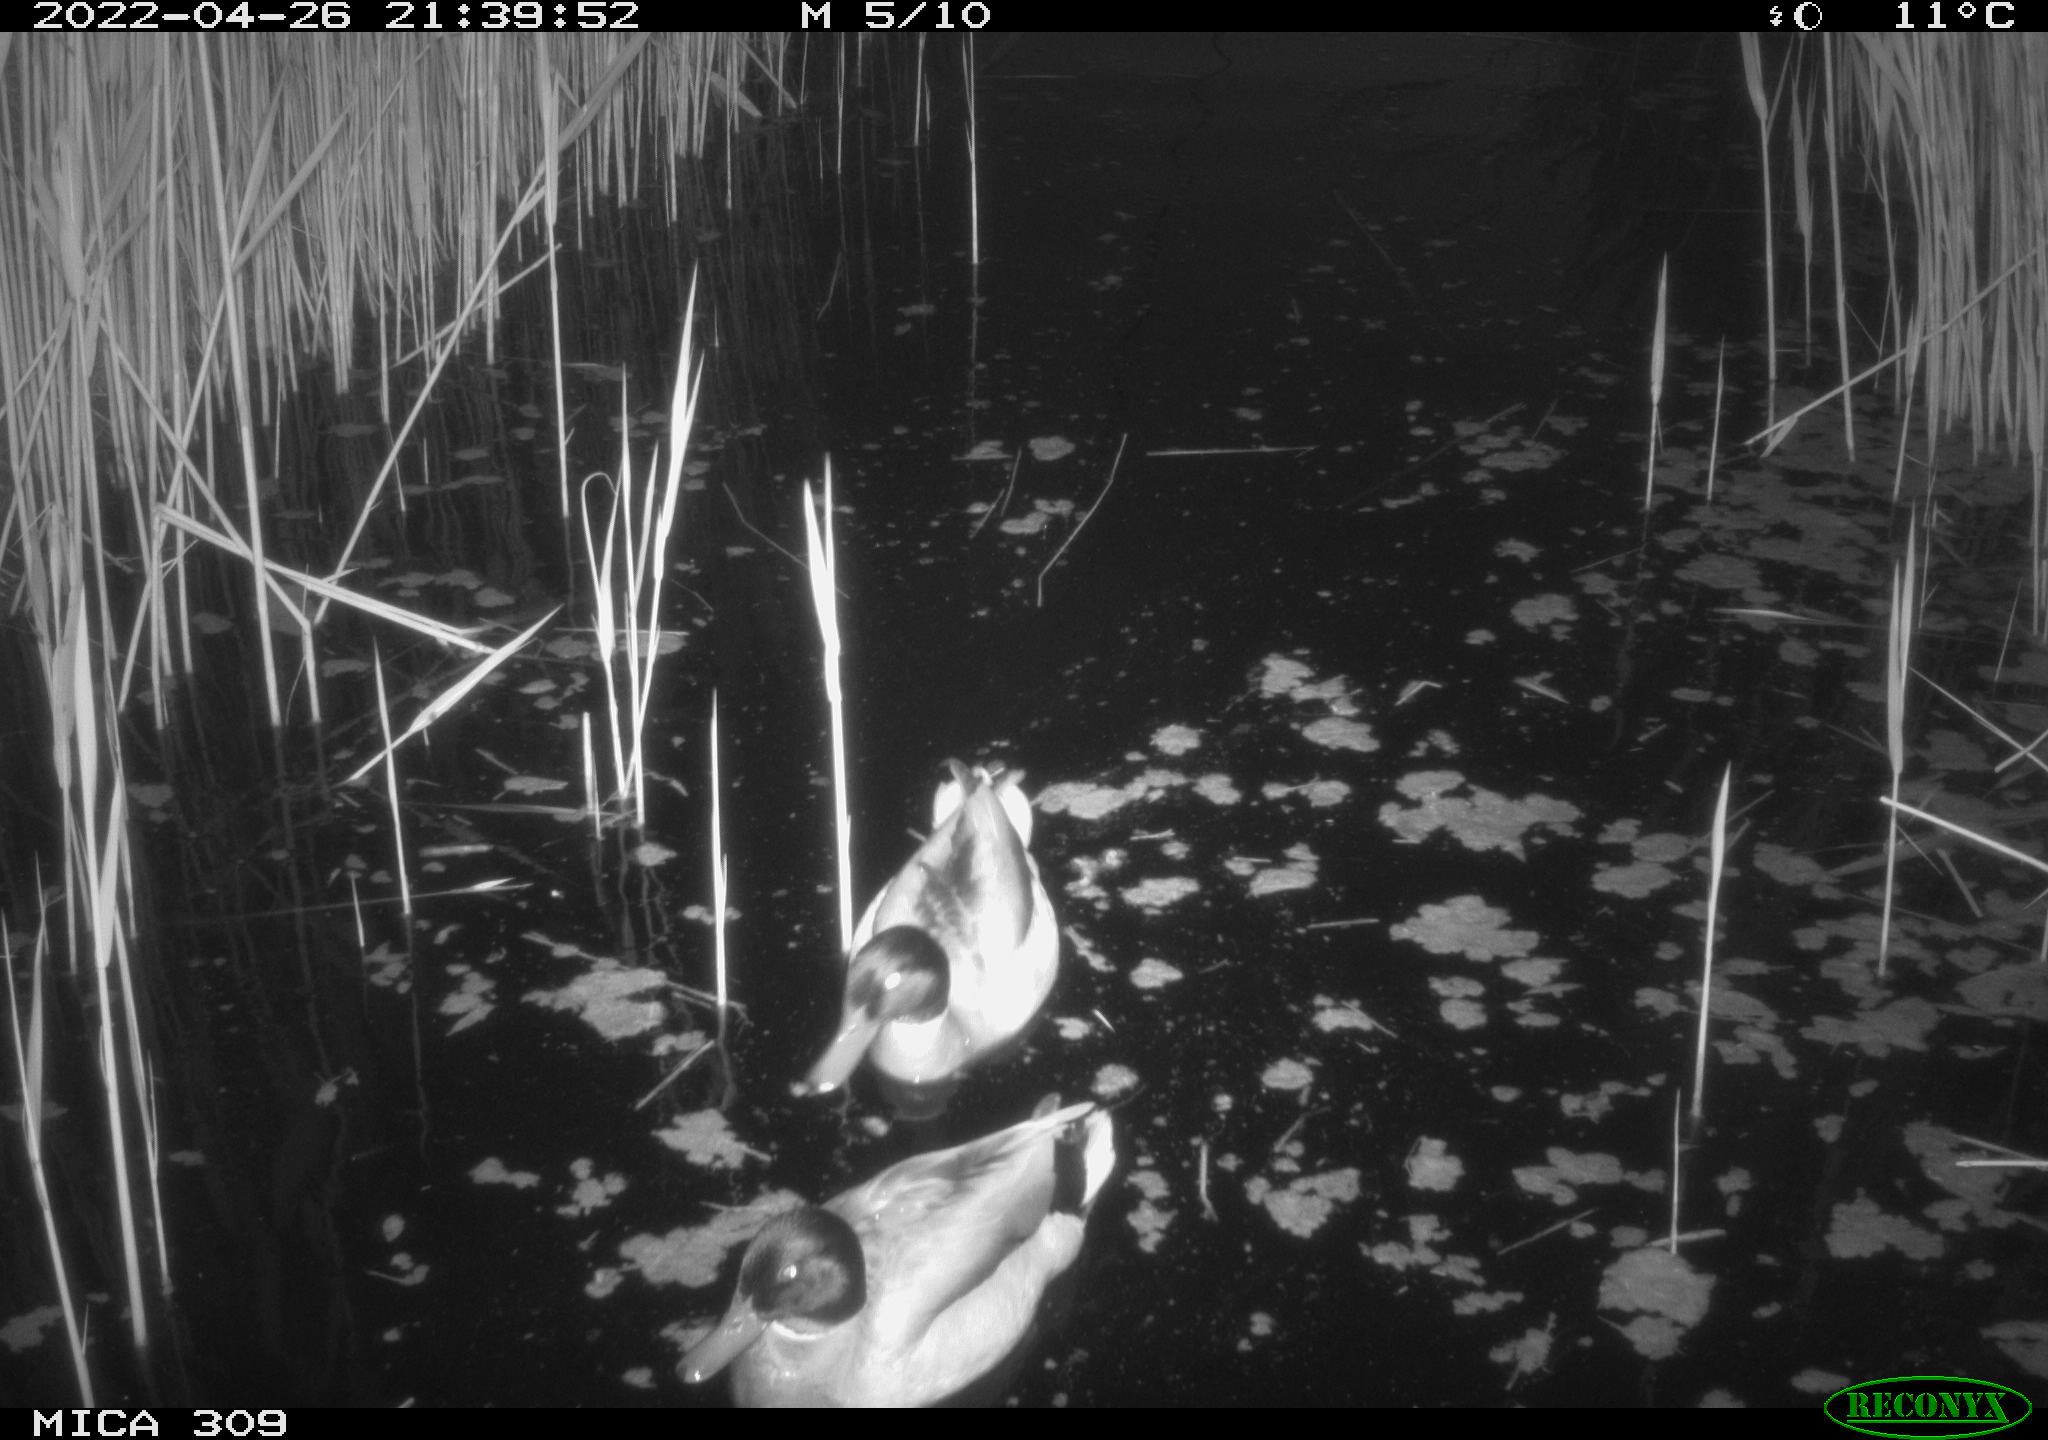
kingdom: Animalia
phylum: Chordata
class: Aves
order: Gruiformes
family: Rallidae
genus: Fulica
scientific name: Fulica atra
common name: Eurasian coot
